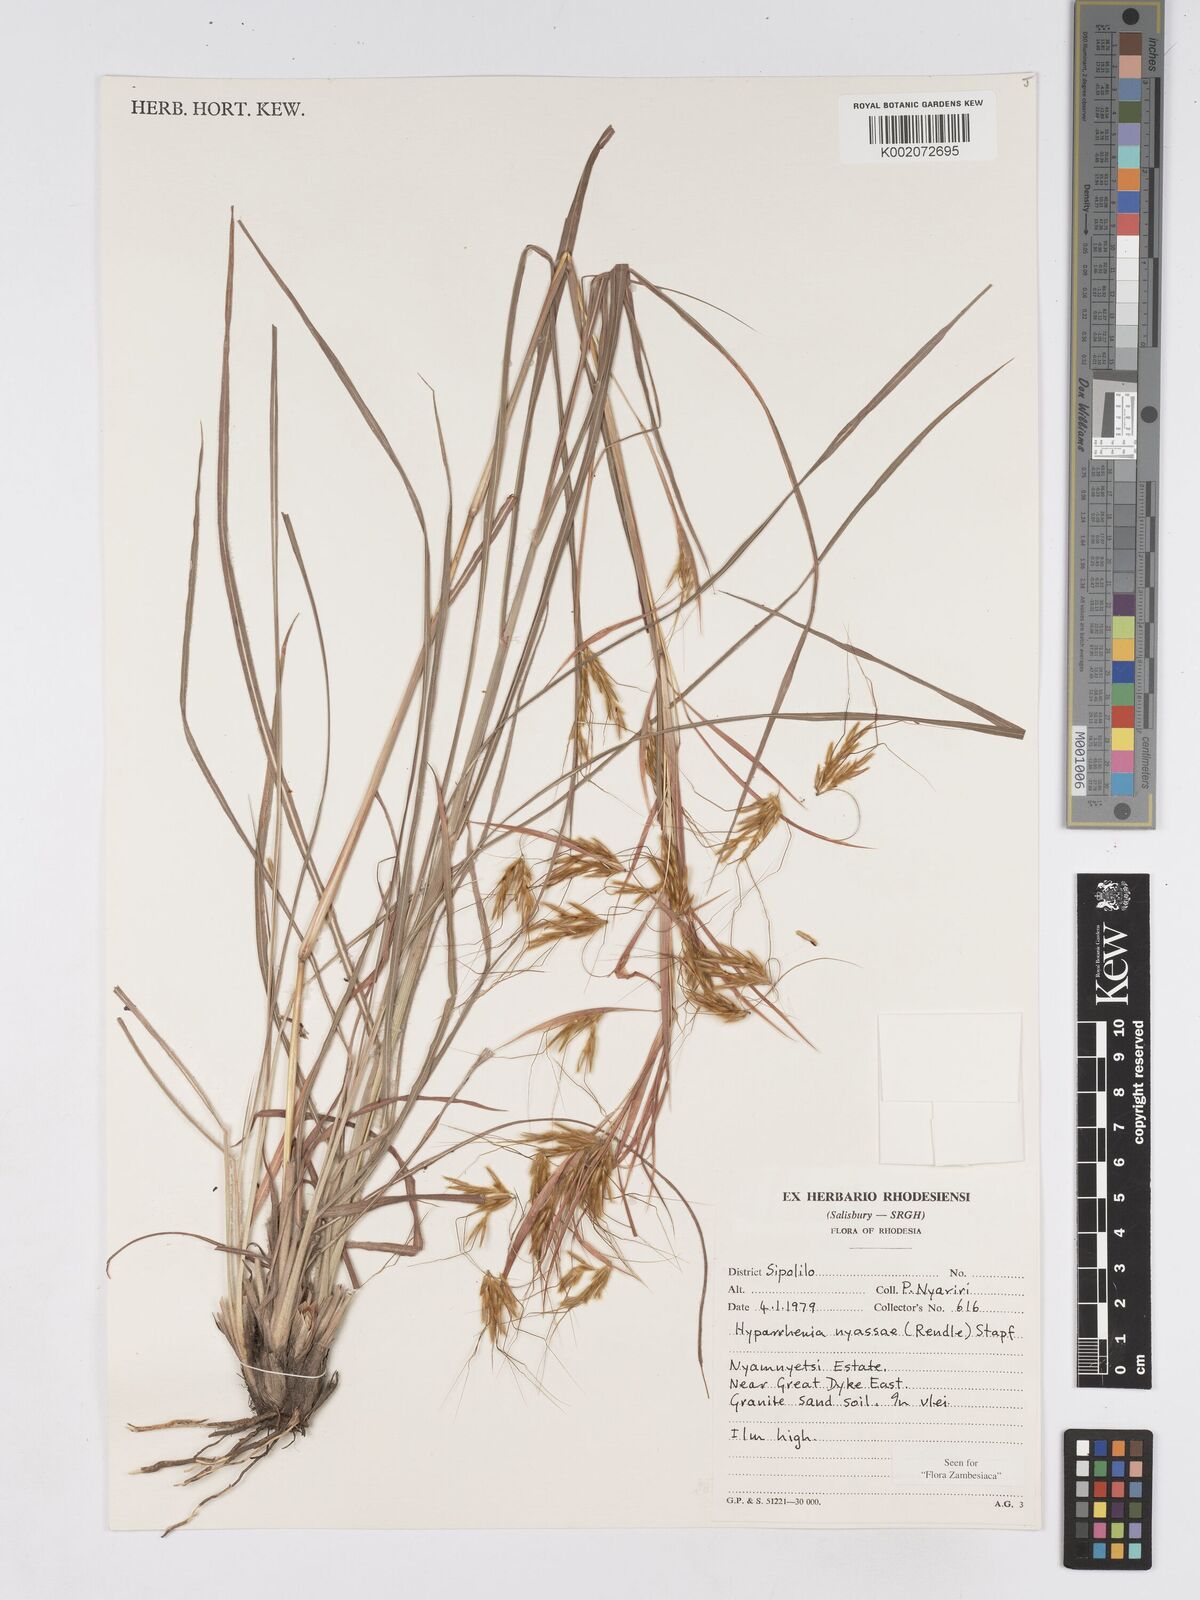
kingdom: Plantae
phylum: Tracheophyta
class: Liliopsida
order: Poales
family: Poaceae
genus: Hyparrhenia
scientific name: Hyparrhenia nyassae
